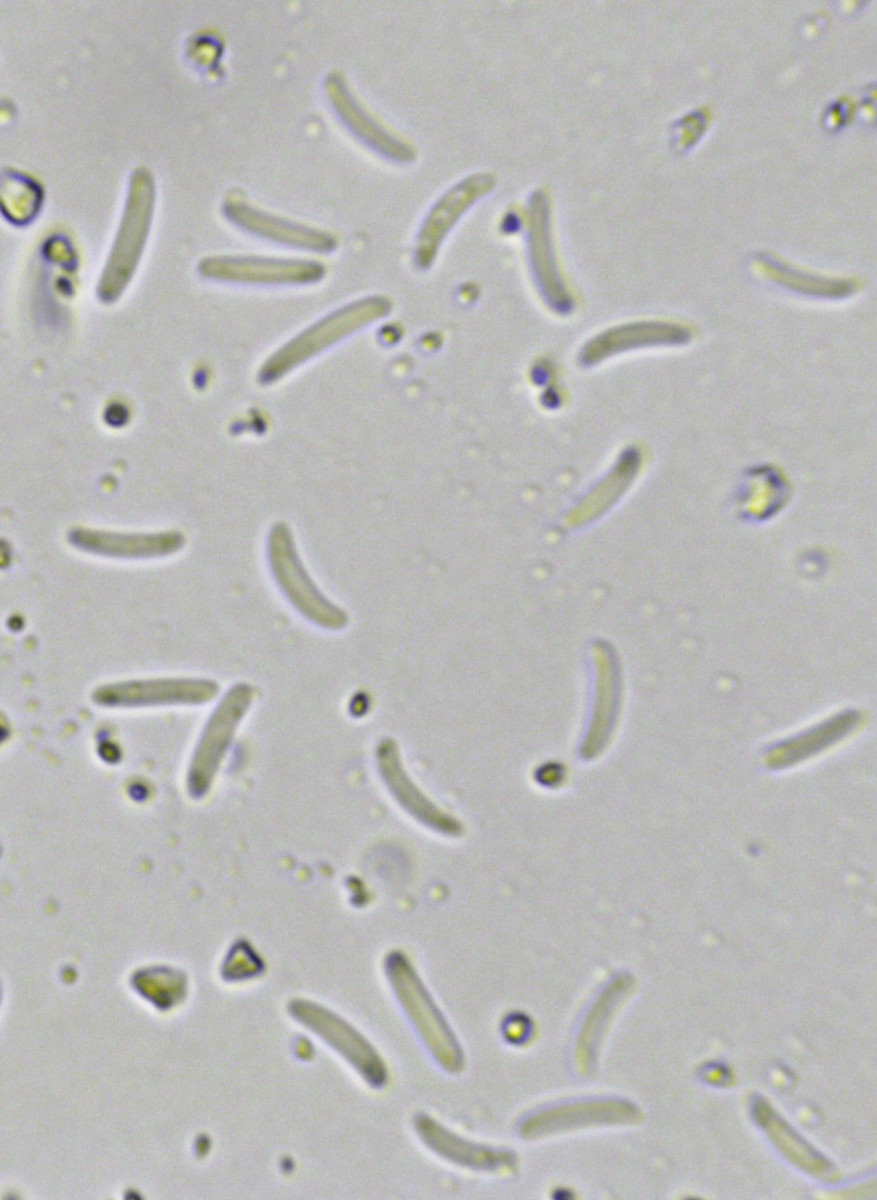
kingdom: Fungi
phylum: Ascomycota
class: Sordariomycetes
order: Diaporthales
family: Valsaceae
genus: Cytospora
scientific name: Cytospora nivea
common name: hvidskivet kulknippe
